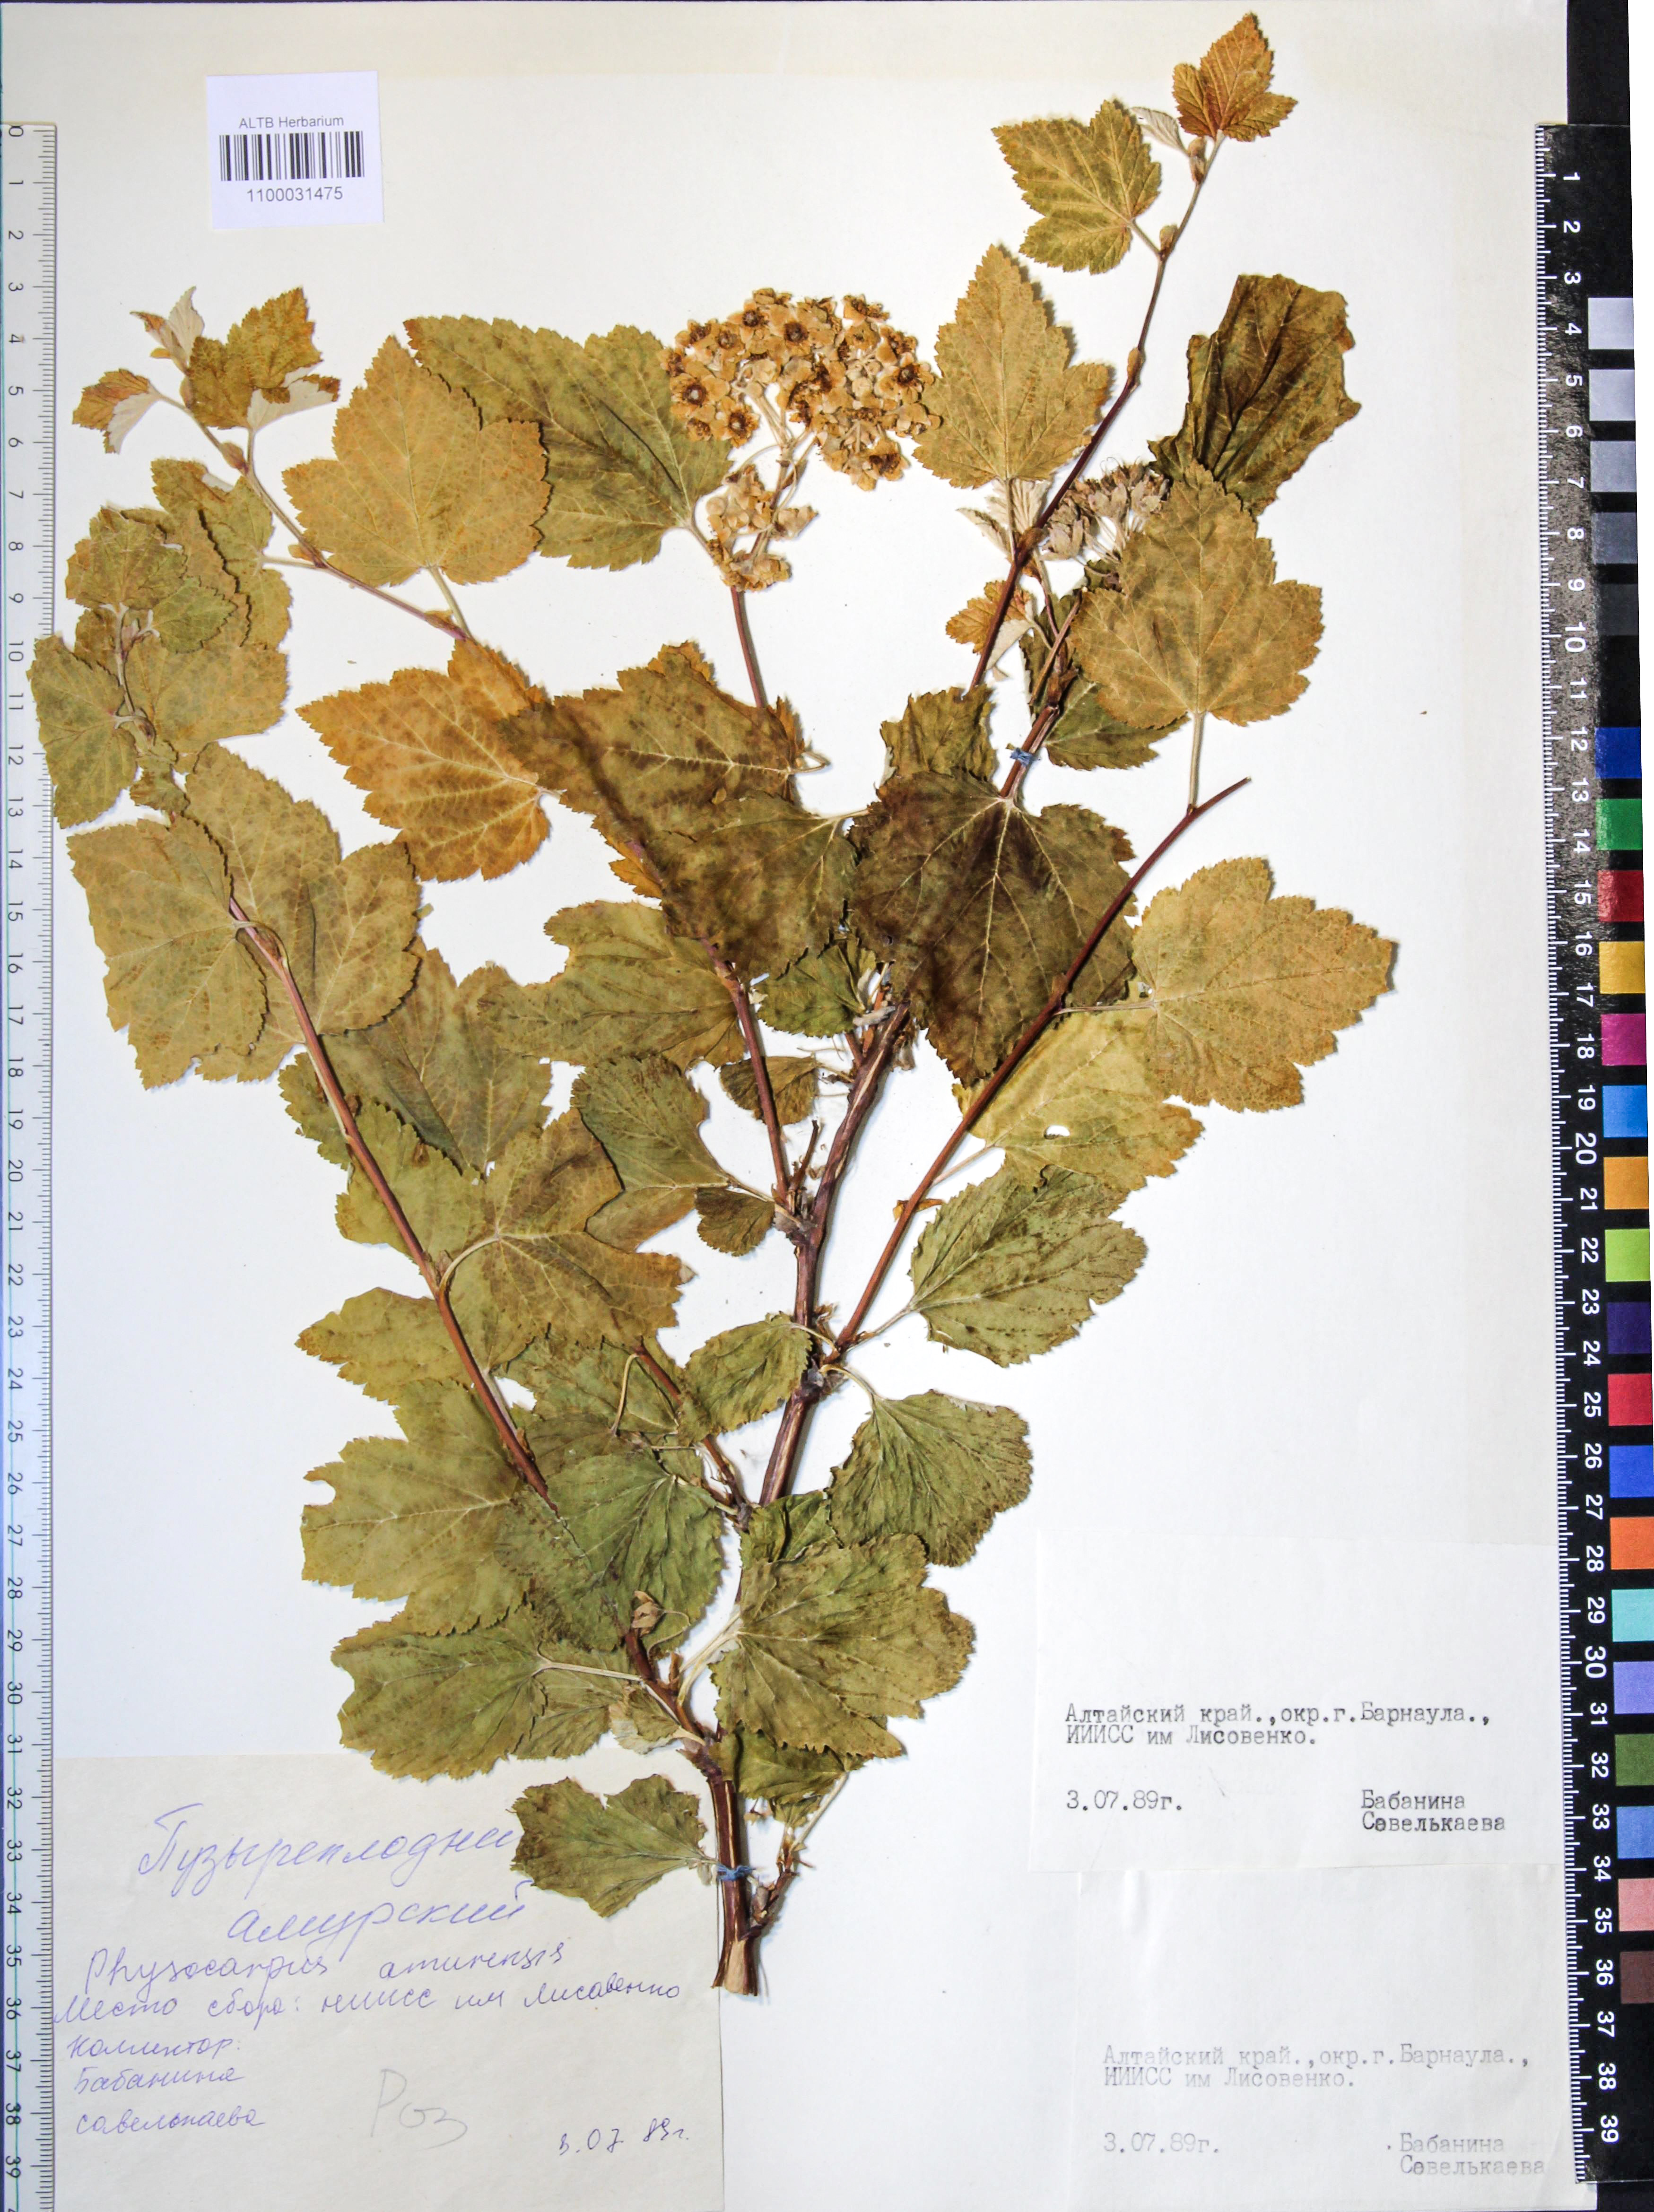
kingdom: Plantae
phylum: Tracheophyta
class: Magnoliopsida
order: Rosales
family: Rosaceae
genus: Physocarpus
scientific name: Physocarpus amurensis
